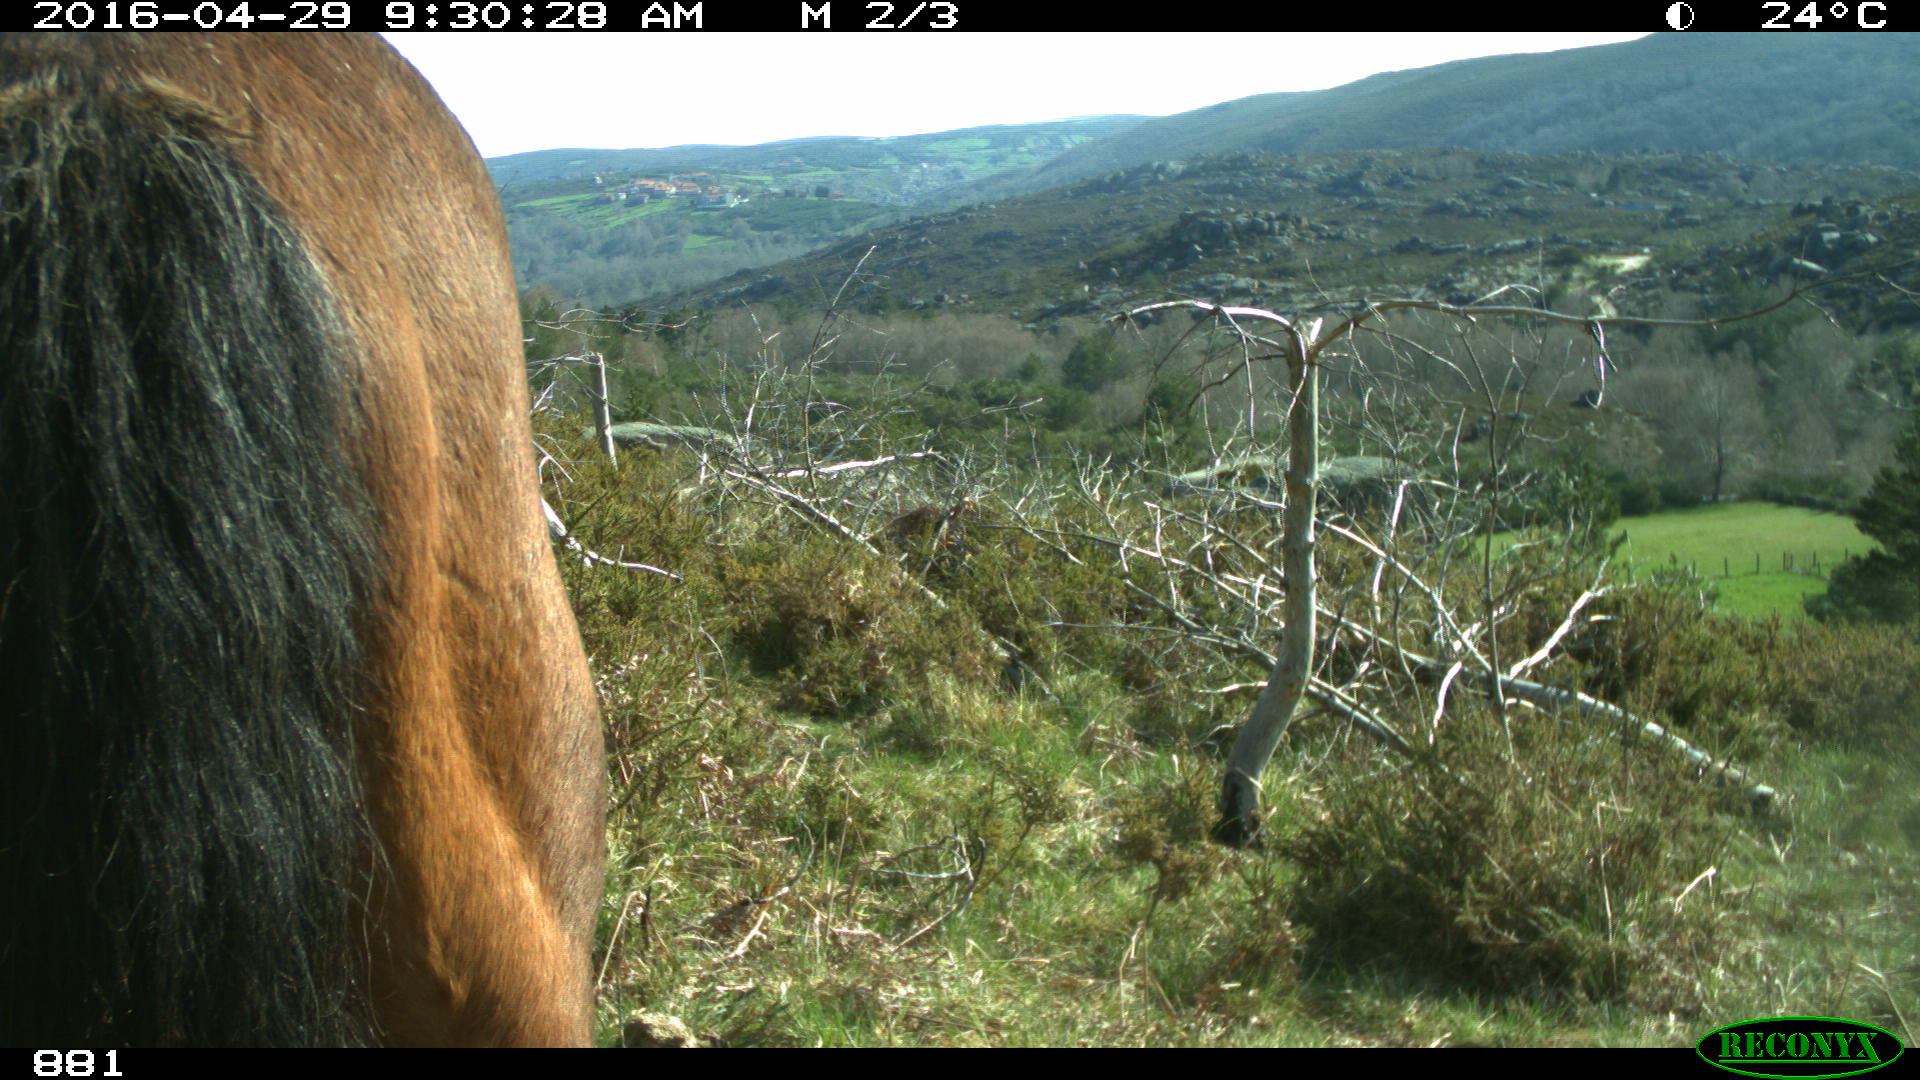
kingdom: Animalia
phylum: Chordata
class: Mammalia
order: Perissodactyla
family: Equidae
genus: Equus
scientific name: Equus caballus
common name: Horse
